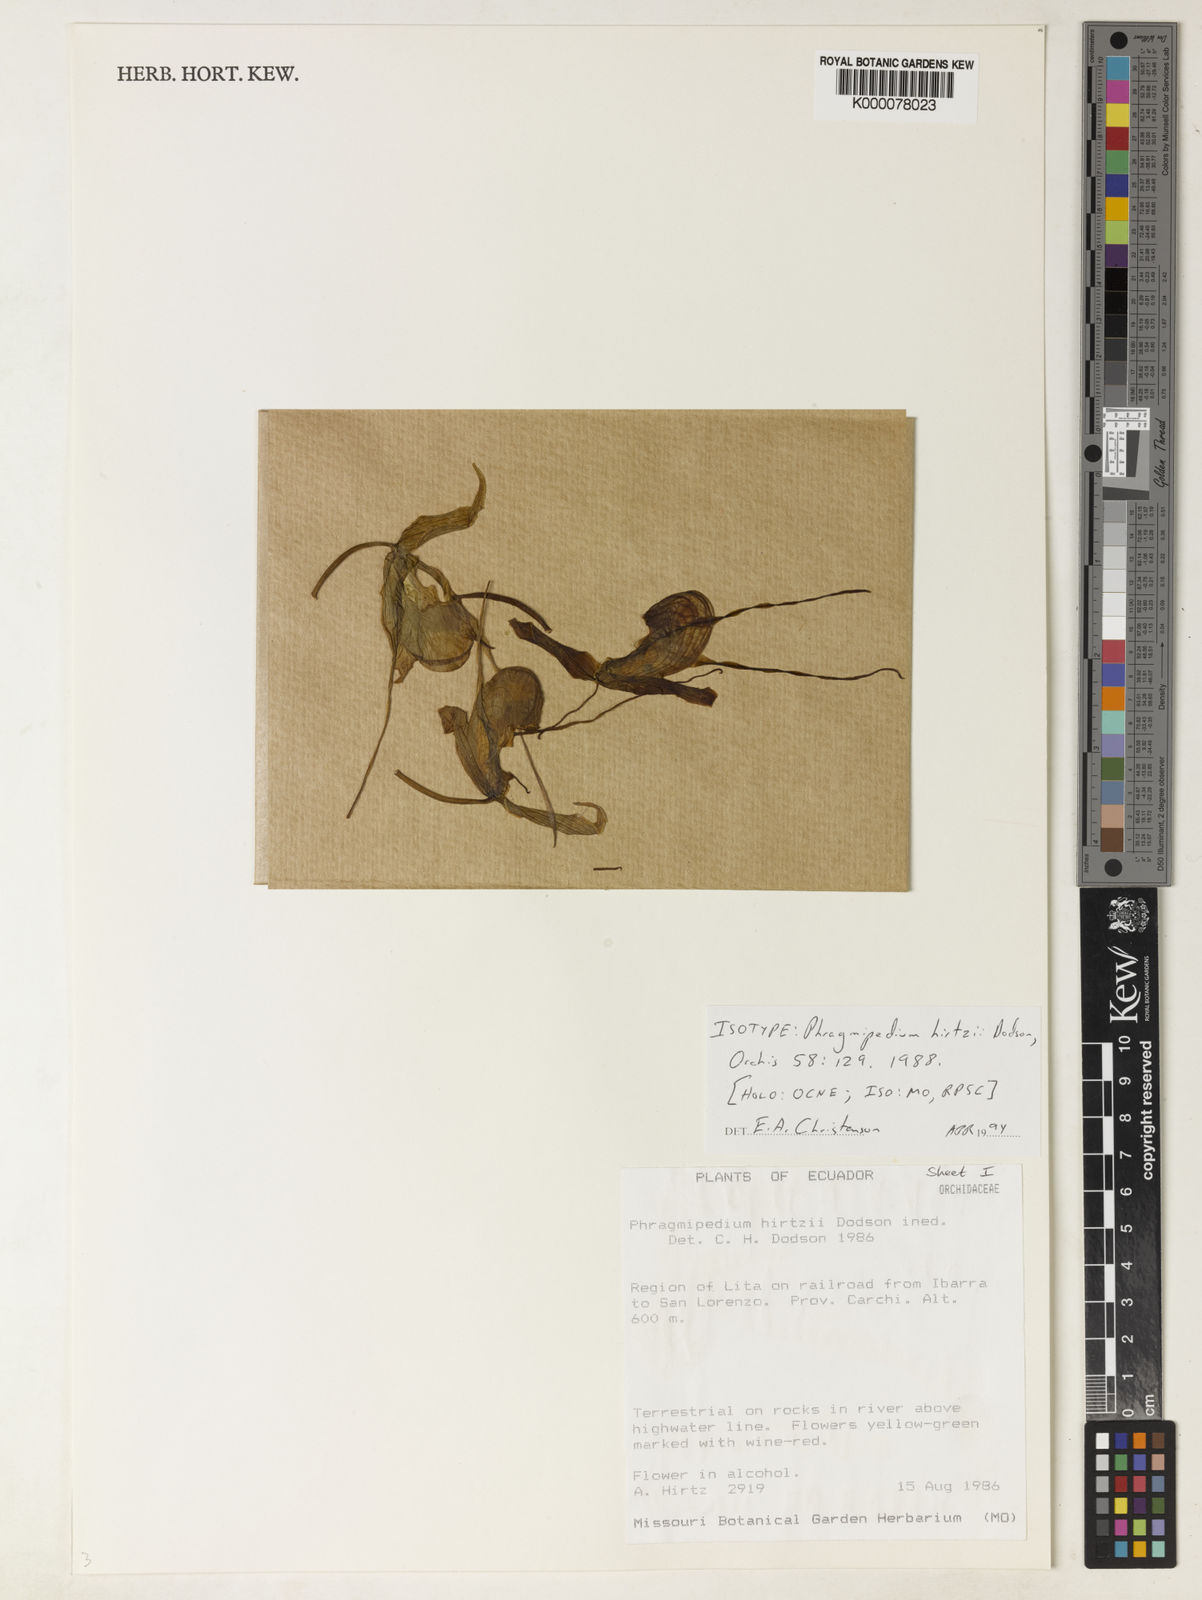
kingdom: Plantae
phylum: Tracheophyta
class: Liliopsida
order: Asparagales
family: Orchidaceae
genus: Phragmipedium
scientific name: Phragmipedium hirtzii
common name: Hirtz' phragmipedium
